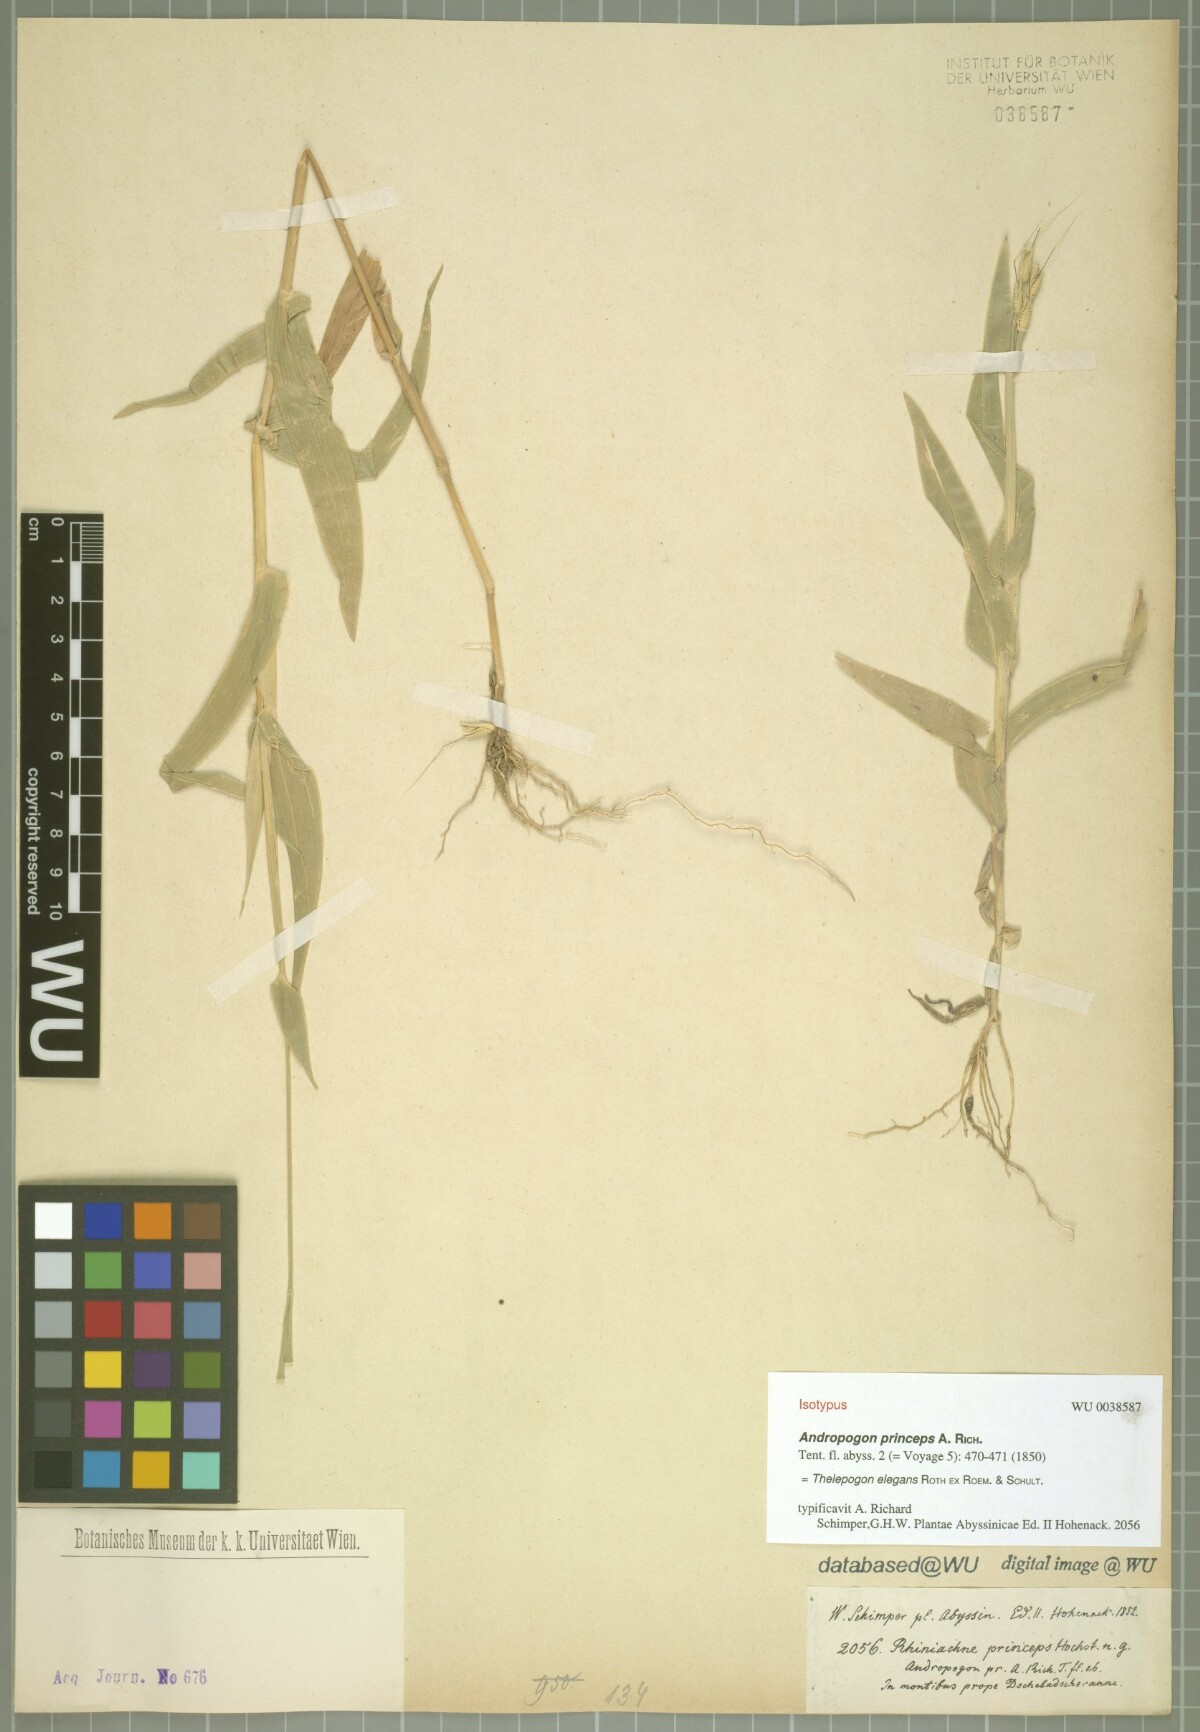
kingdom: Plantae
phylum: Tracheophyta
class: Liliopsida
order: Poales
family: Poaceae
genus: Thelepogon
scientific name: Thelepogon elegans
